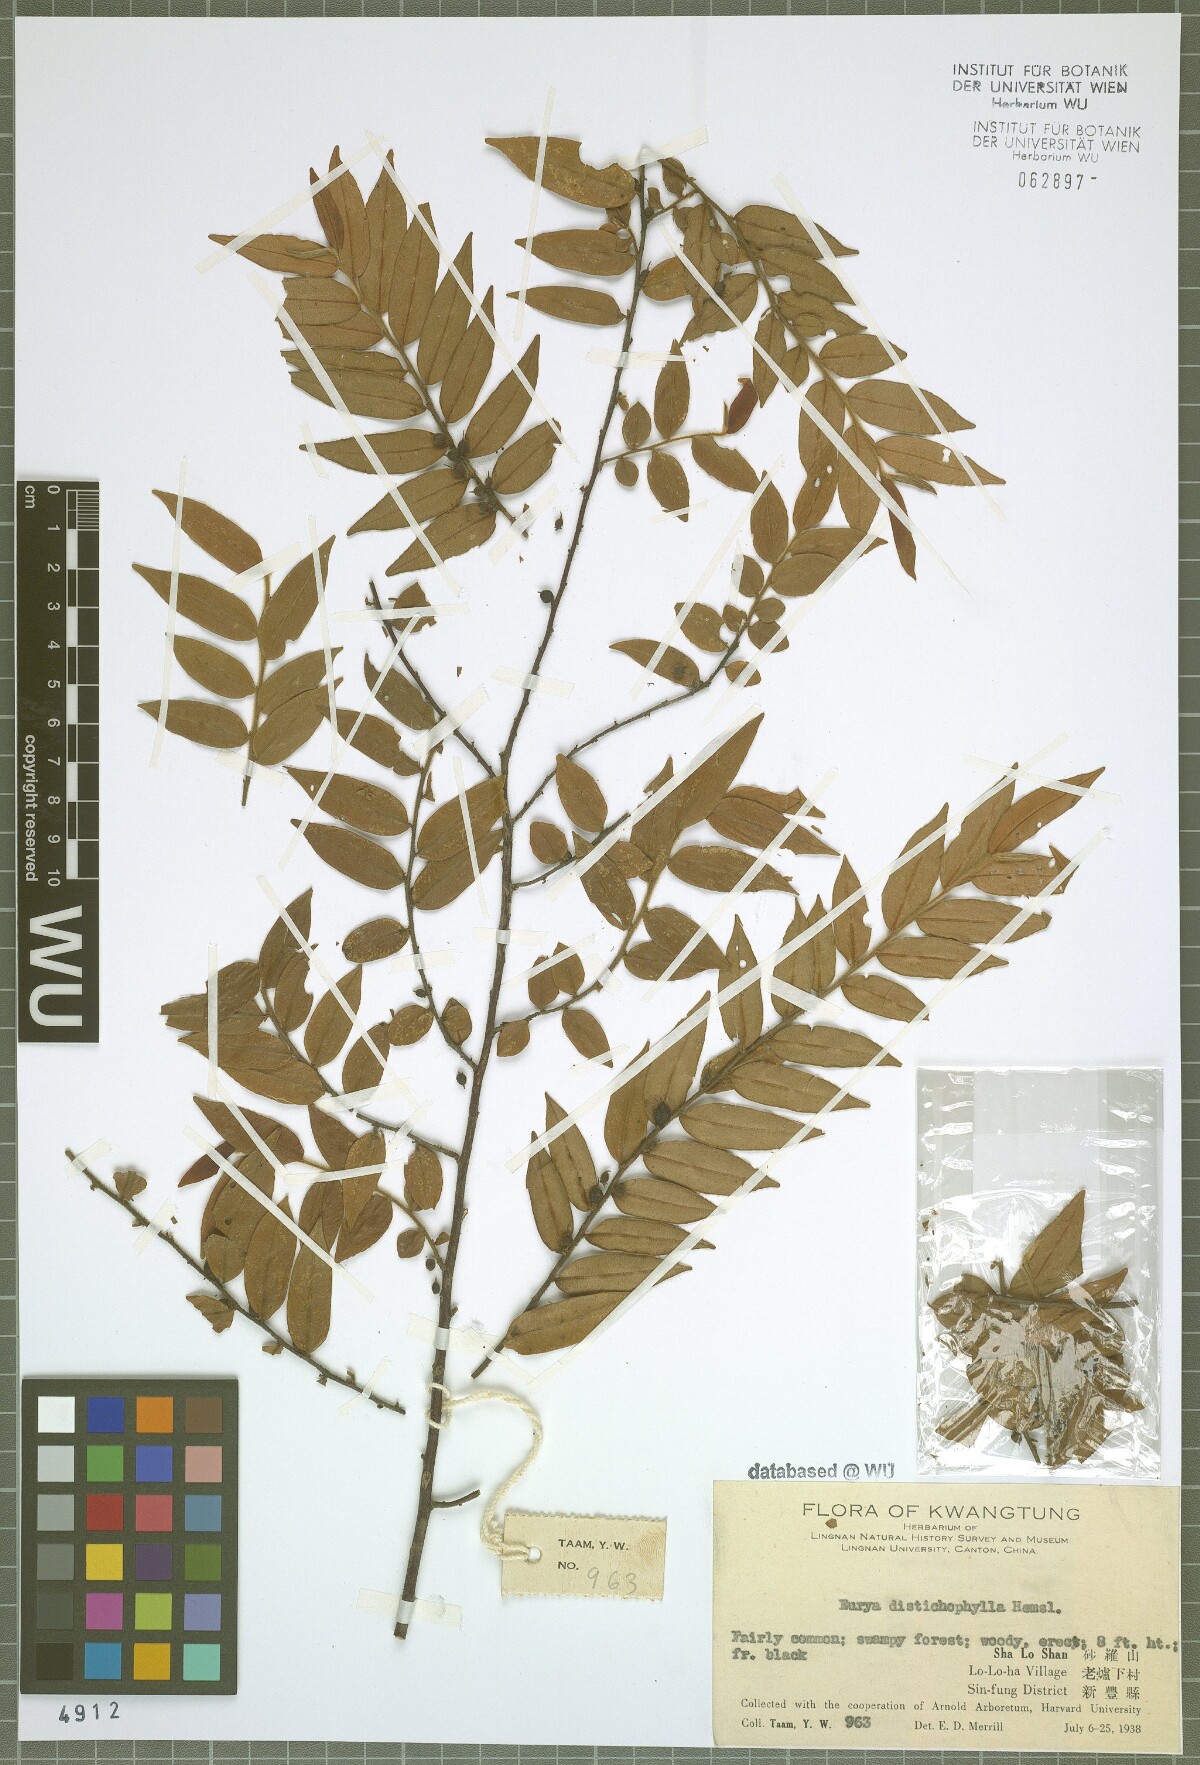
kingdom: Plantae
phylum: Tracheophyta
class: Magnoliopsida
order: Ericales
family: Pentaphylacaceae
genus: Eurya
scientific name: Eurya distichophylla
